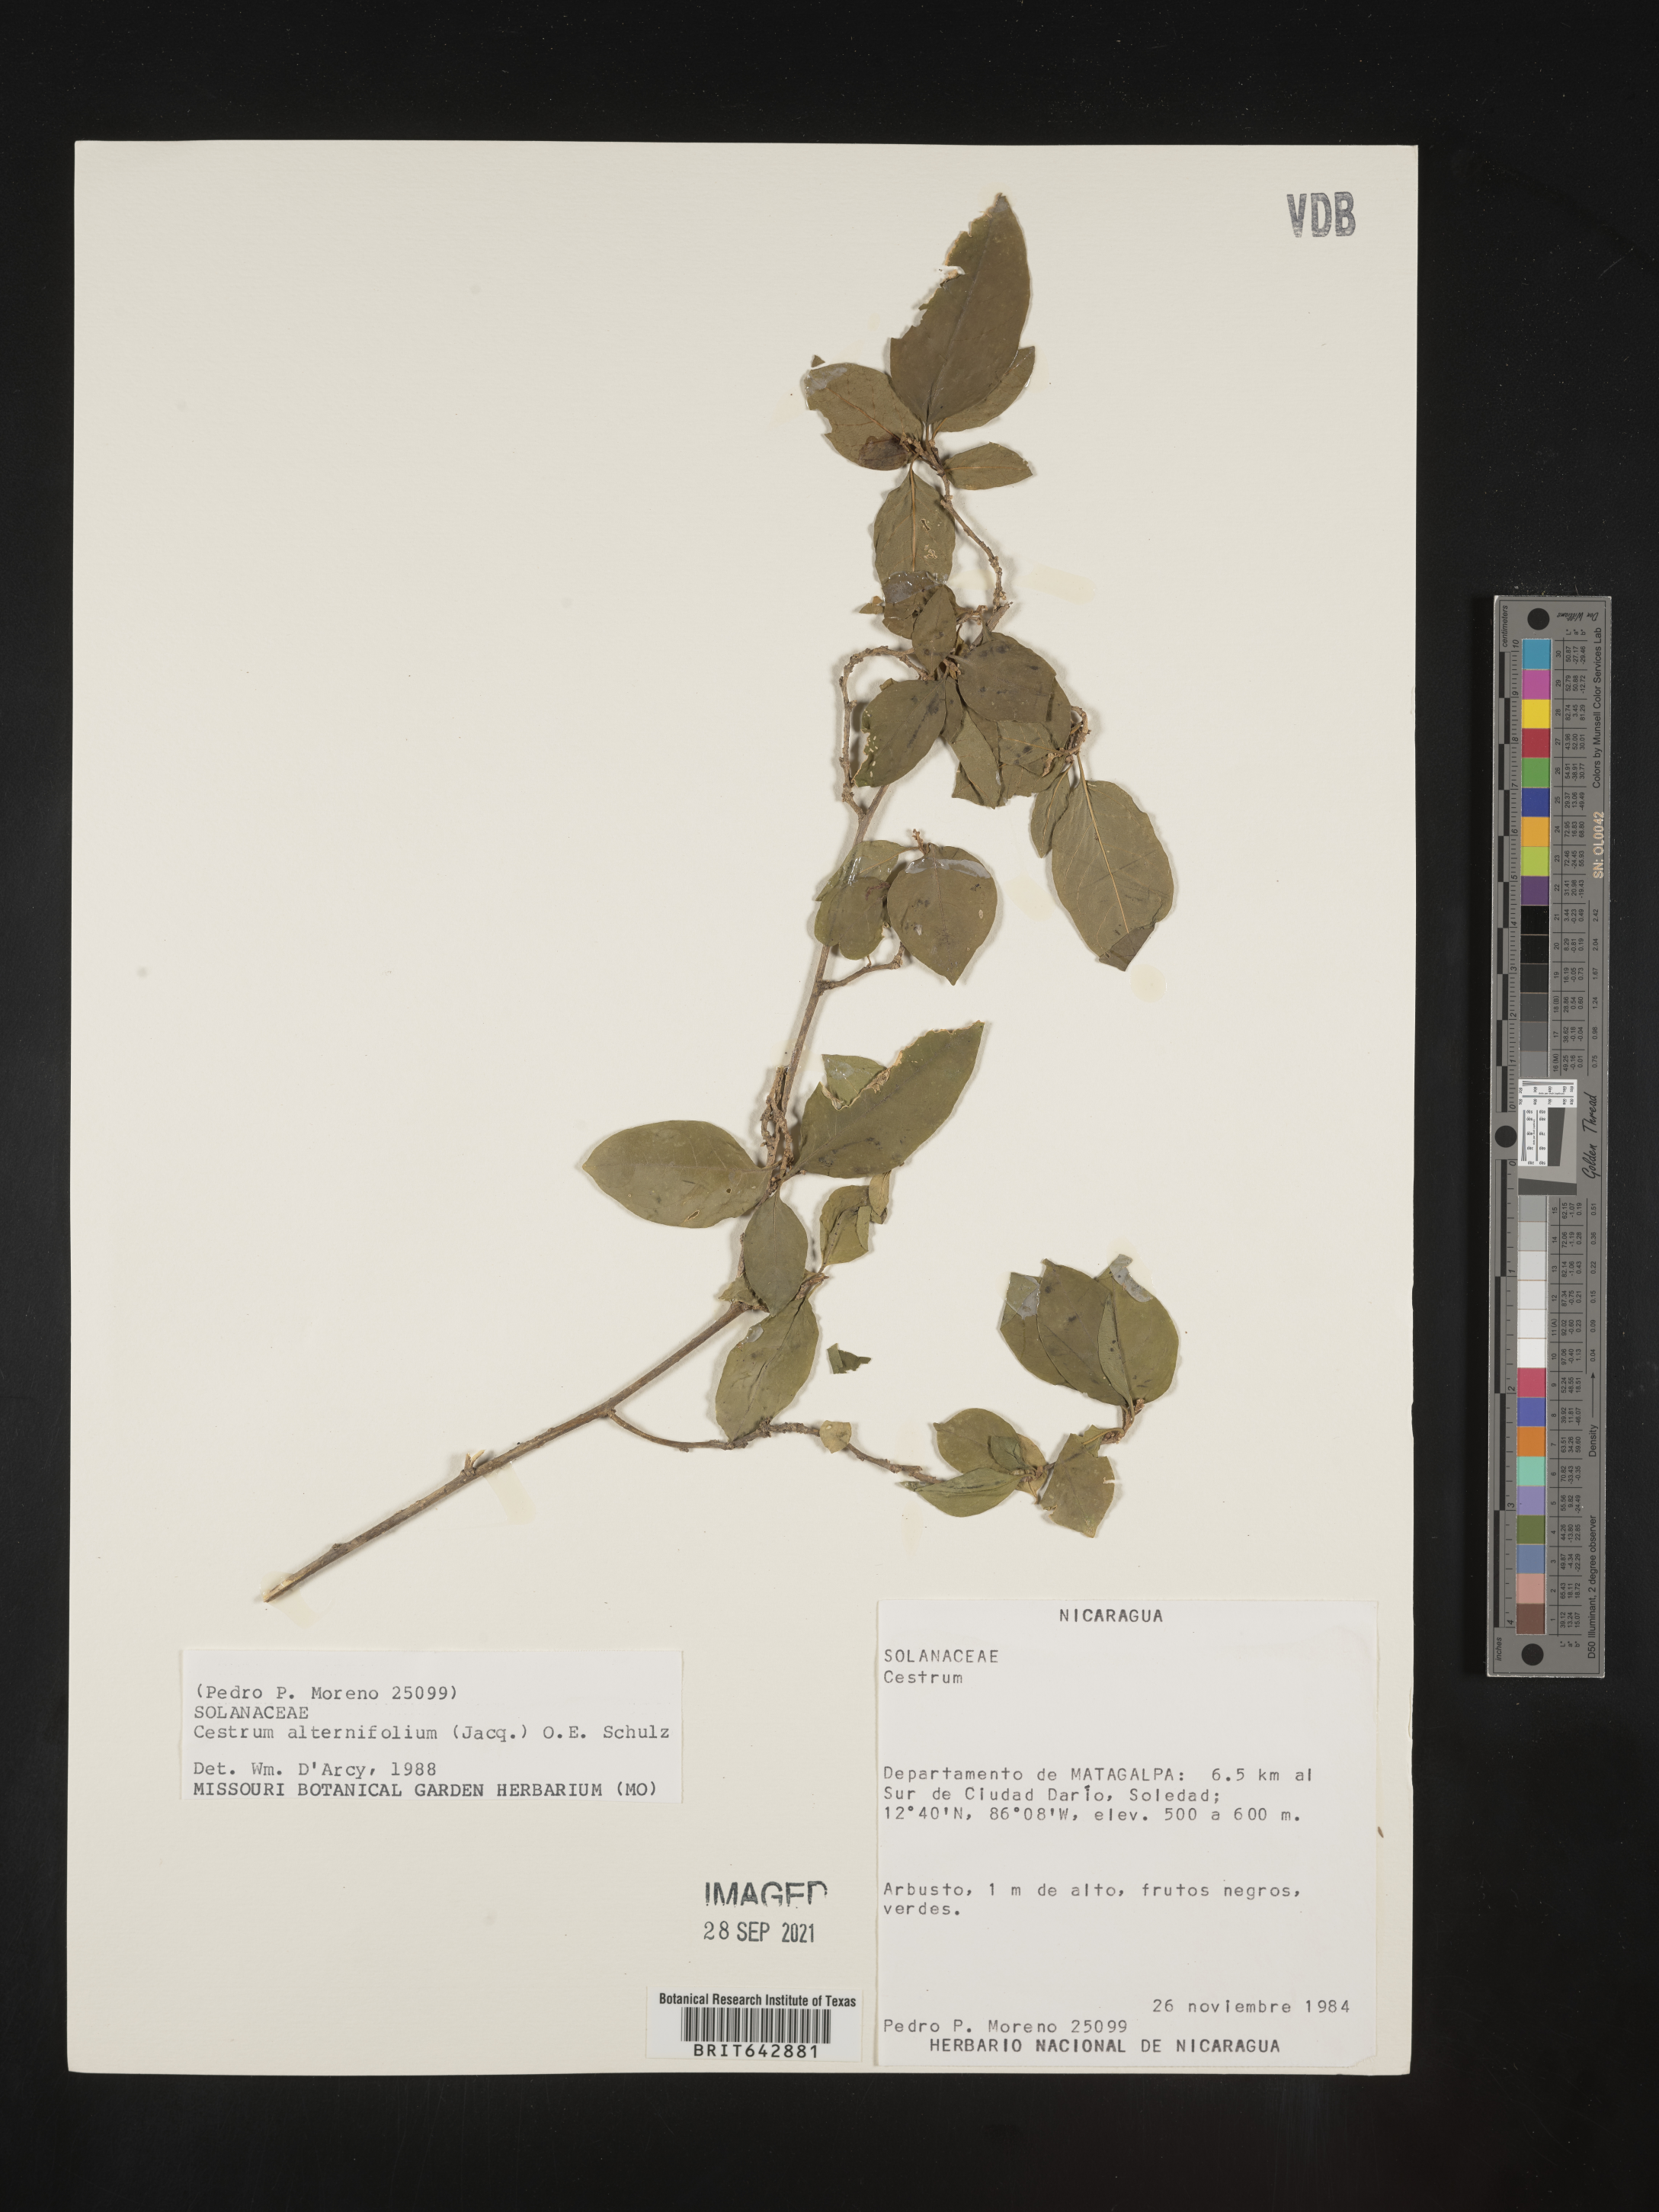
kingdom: Plantae
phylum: Tracheophyta
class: Magnoliopsida
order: Solanales
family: Solanaceae
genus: Cestrum
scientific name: Cestrum
